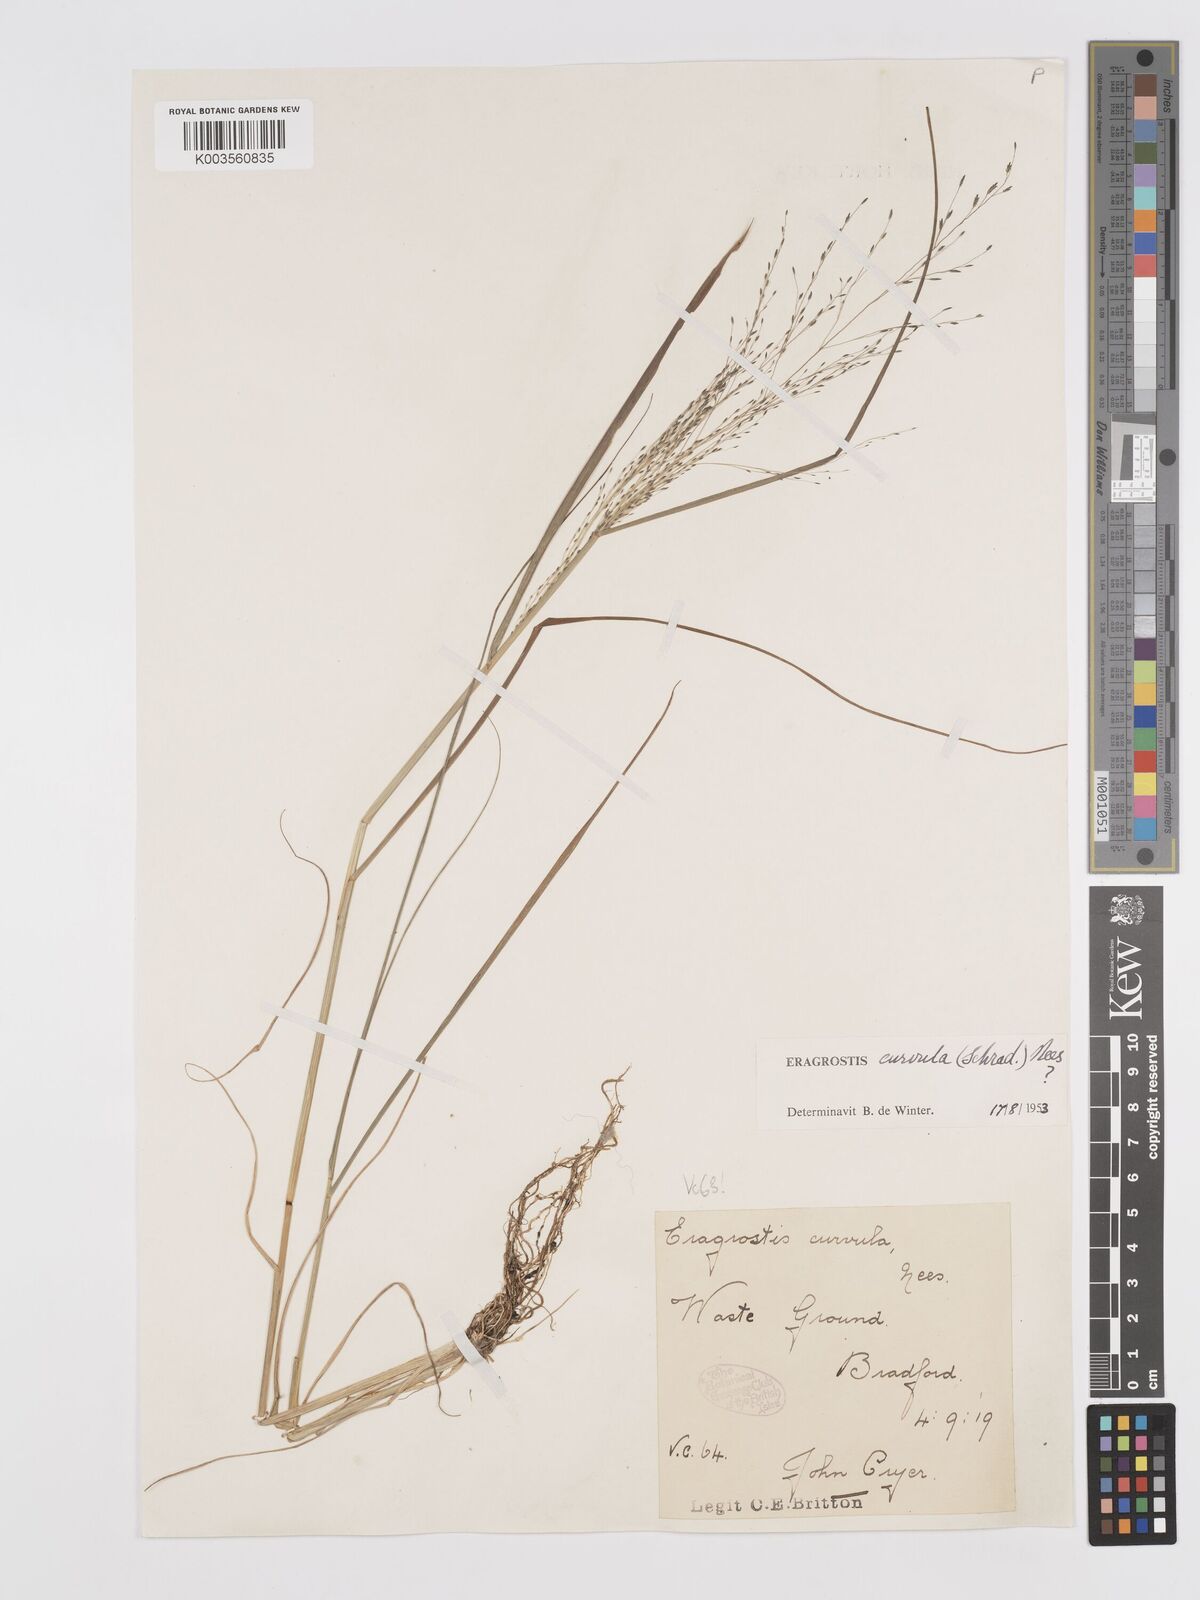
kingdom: Plantae
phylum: Tracheophyta
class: Liliopsida
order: Poales
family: Poaceae
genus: Eragrostis
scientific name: Eragrostis curvula
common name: African love-grass
